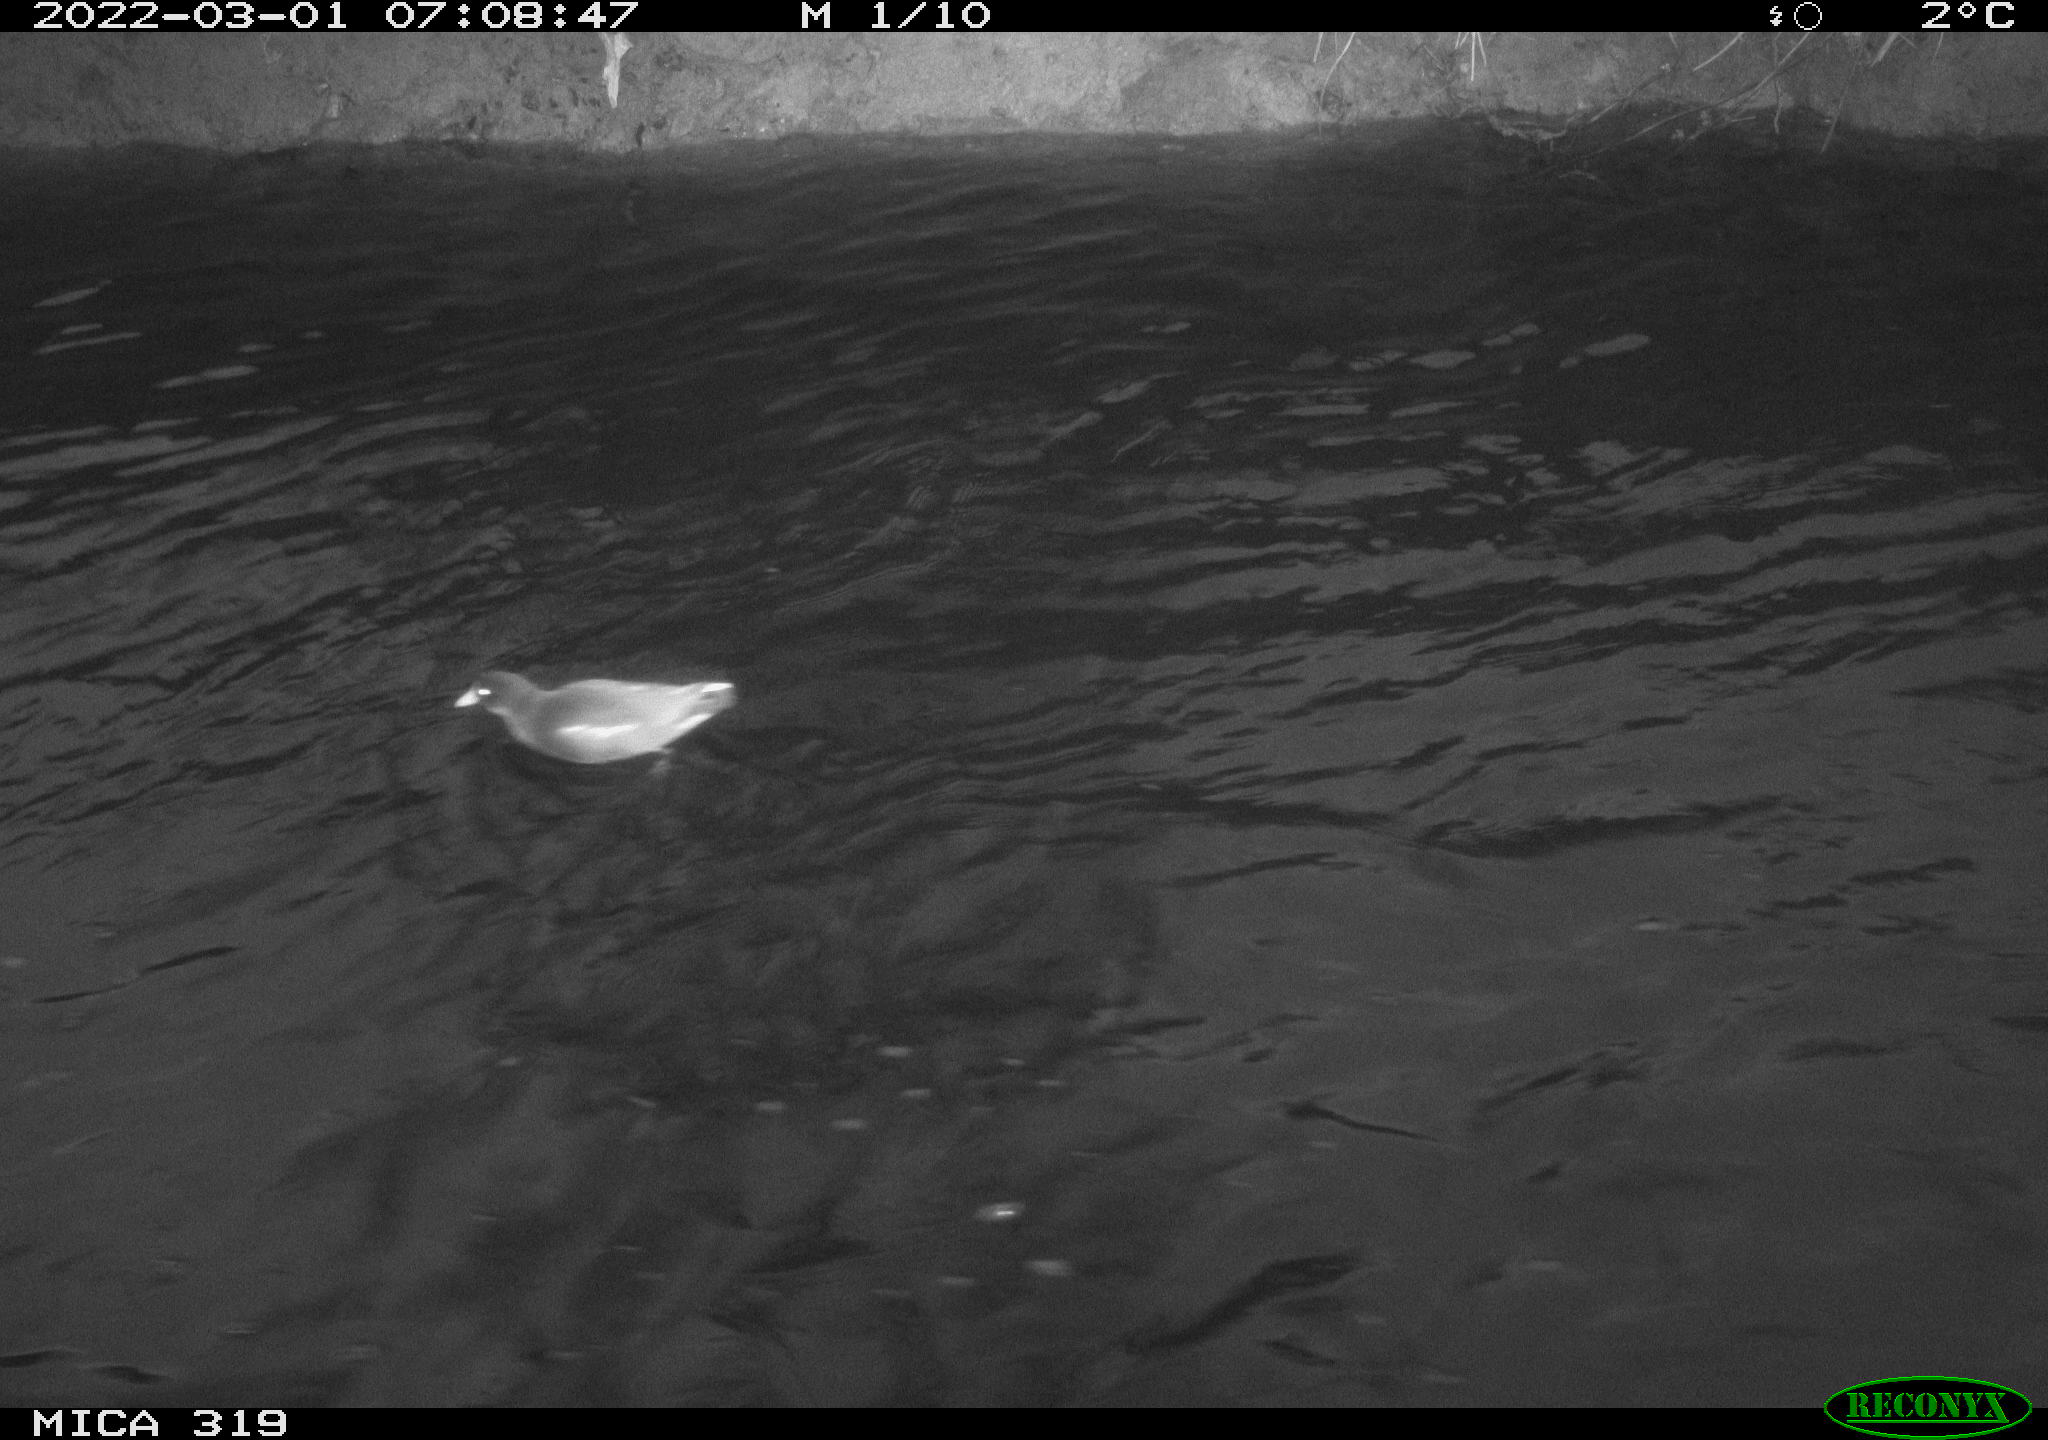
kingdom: Animalia
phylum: Chordata
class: Aves
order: Gruiformes
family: Rallidae
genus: Gallinula
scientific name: Gallinula chloropus
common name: Common moorhen
